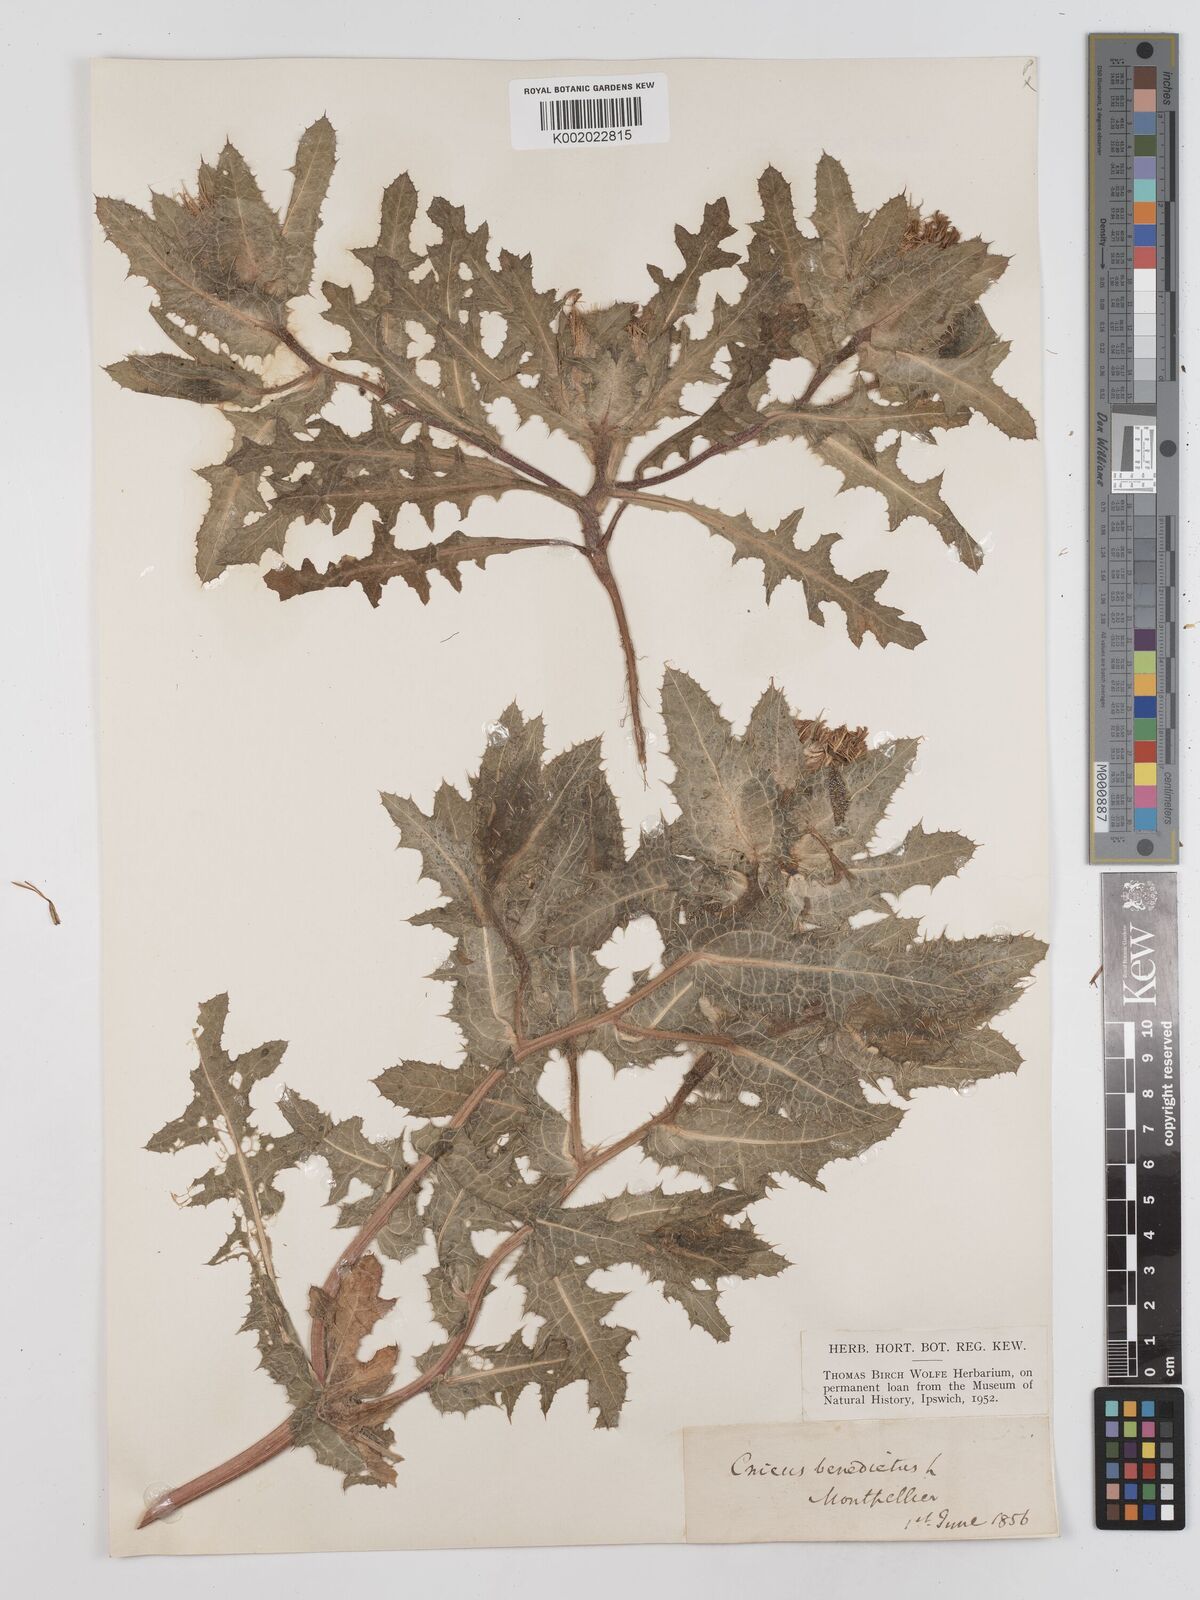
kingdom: Plantae
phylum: Tracheophyta
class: Magnoliopsida
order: Asterales
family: Asteraceae
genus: Centaurea
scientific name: Centaurea benedicta
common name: Blessed thistle
